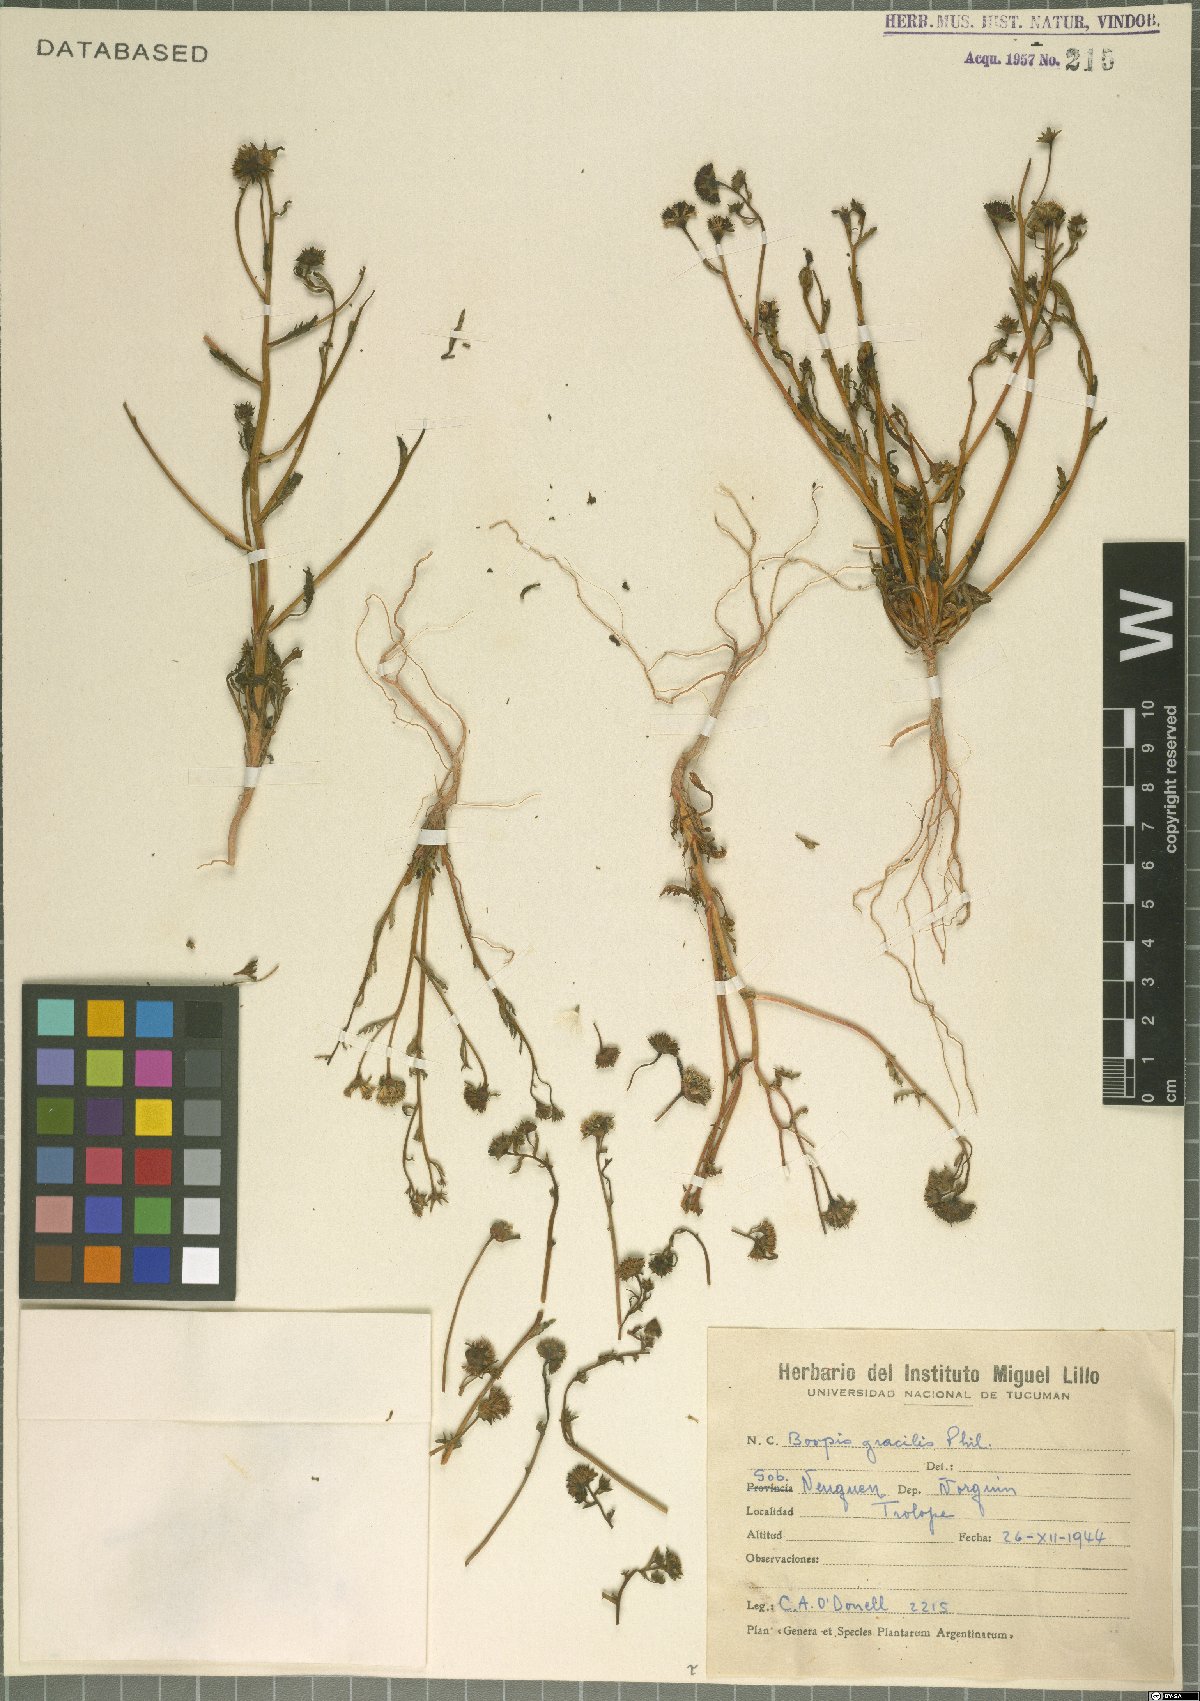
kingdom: Plantae
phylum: Tracheophyta
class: Magnoliopsida
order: Asterales
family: Calyceraceae
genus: Asynthema
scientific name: Asynthema gracile
